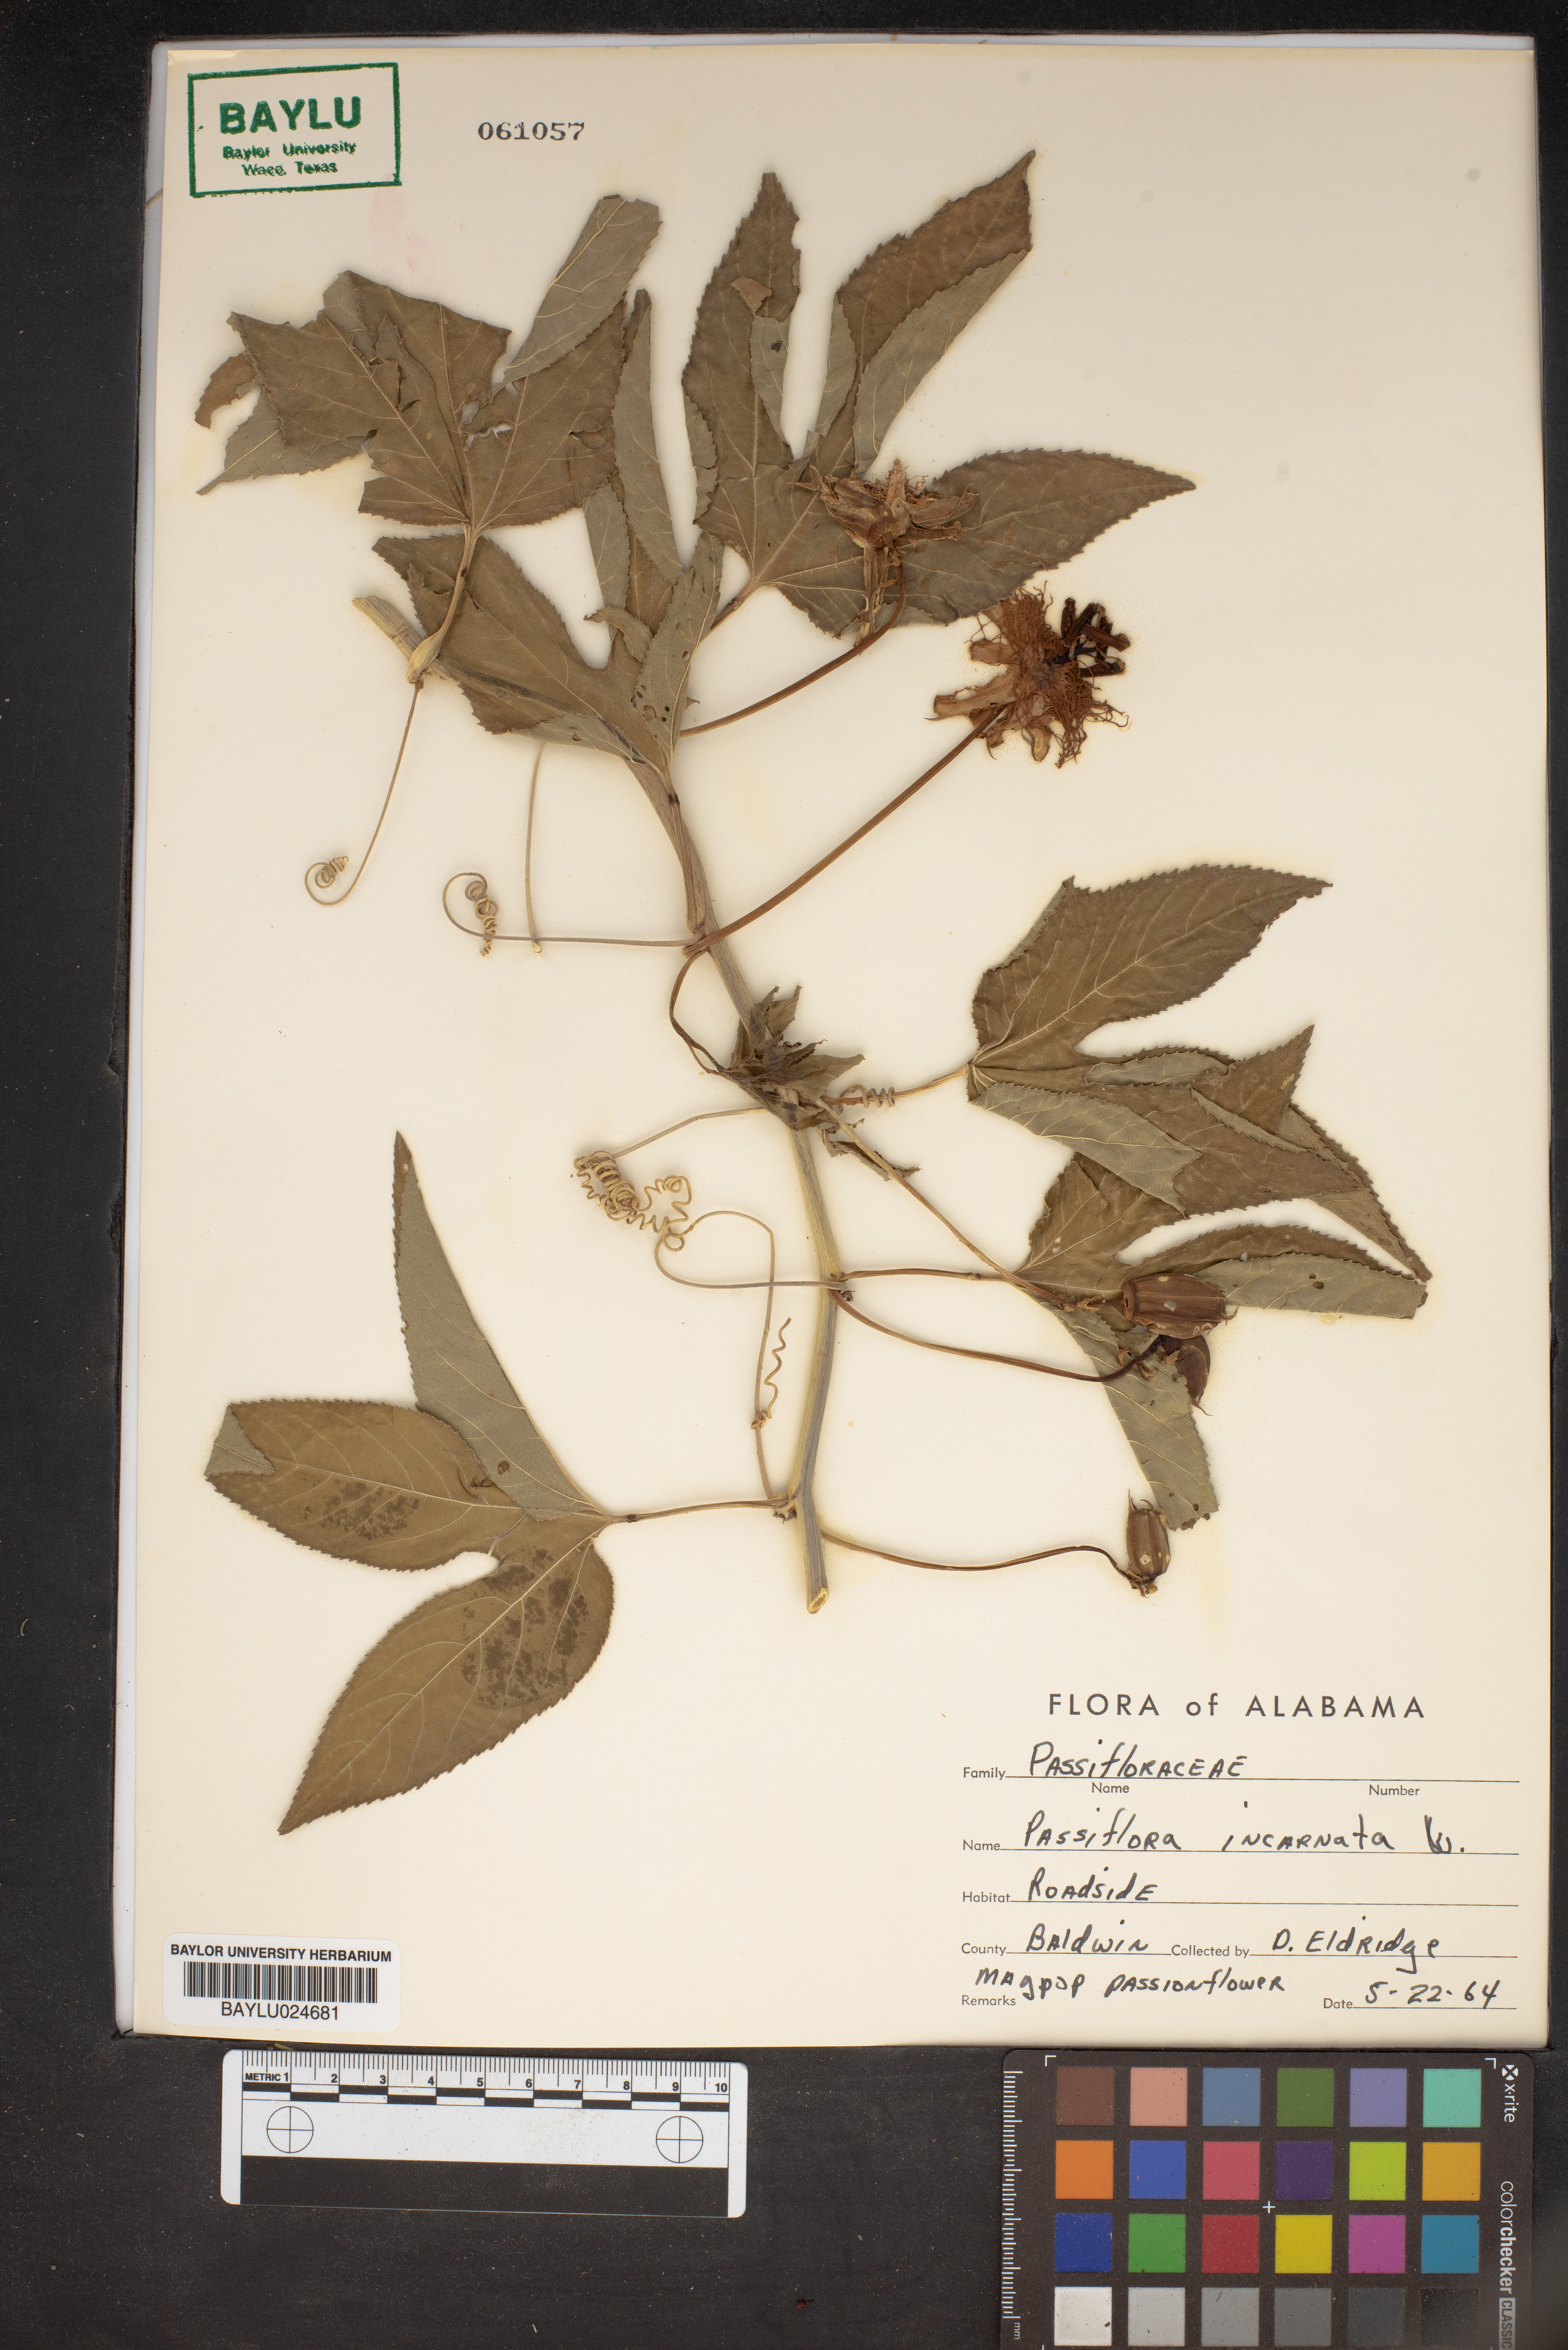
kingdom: Plantae
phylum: Tracheophyta
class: Magnoliopsida
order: Malpighiales
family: Passifloraceae
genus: Passiflora
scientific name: Passiflora incarnata
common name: Apricot-vine
